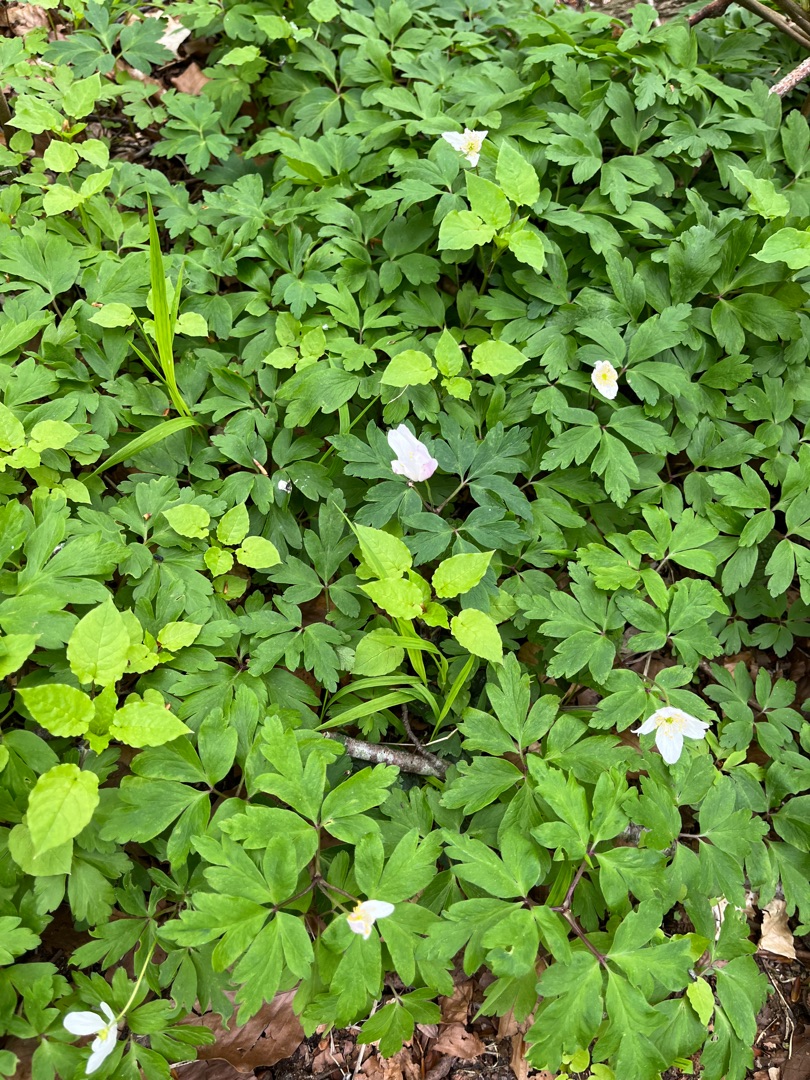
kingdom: Plantae
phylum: Tracheophyta
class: Magnoliopsida
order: Ranunculales
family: Ranunculaceae
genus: Anemone
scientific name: Anemone nemorosa
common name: Hvid anemone
